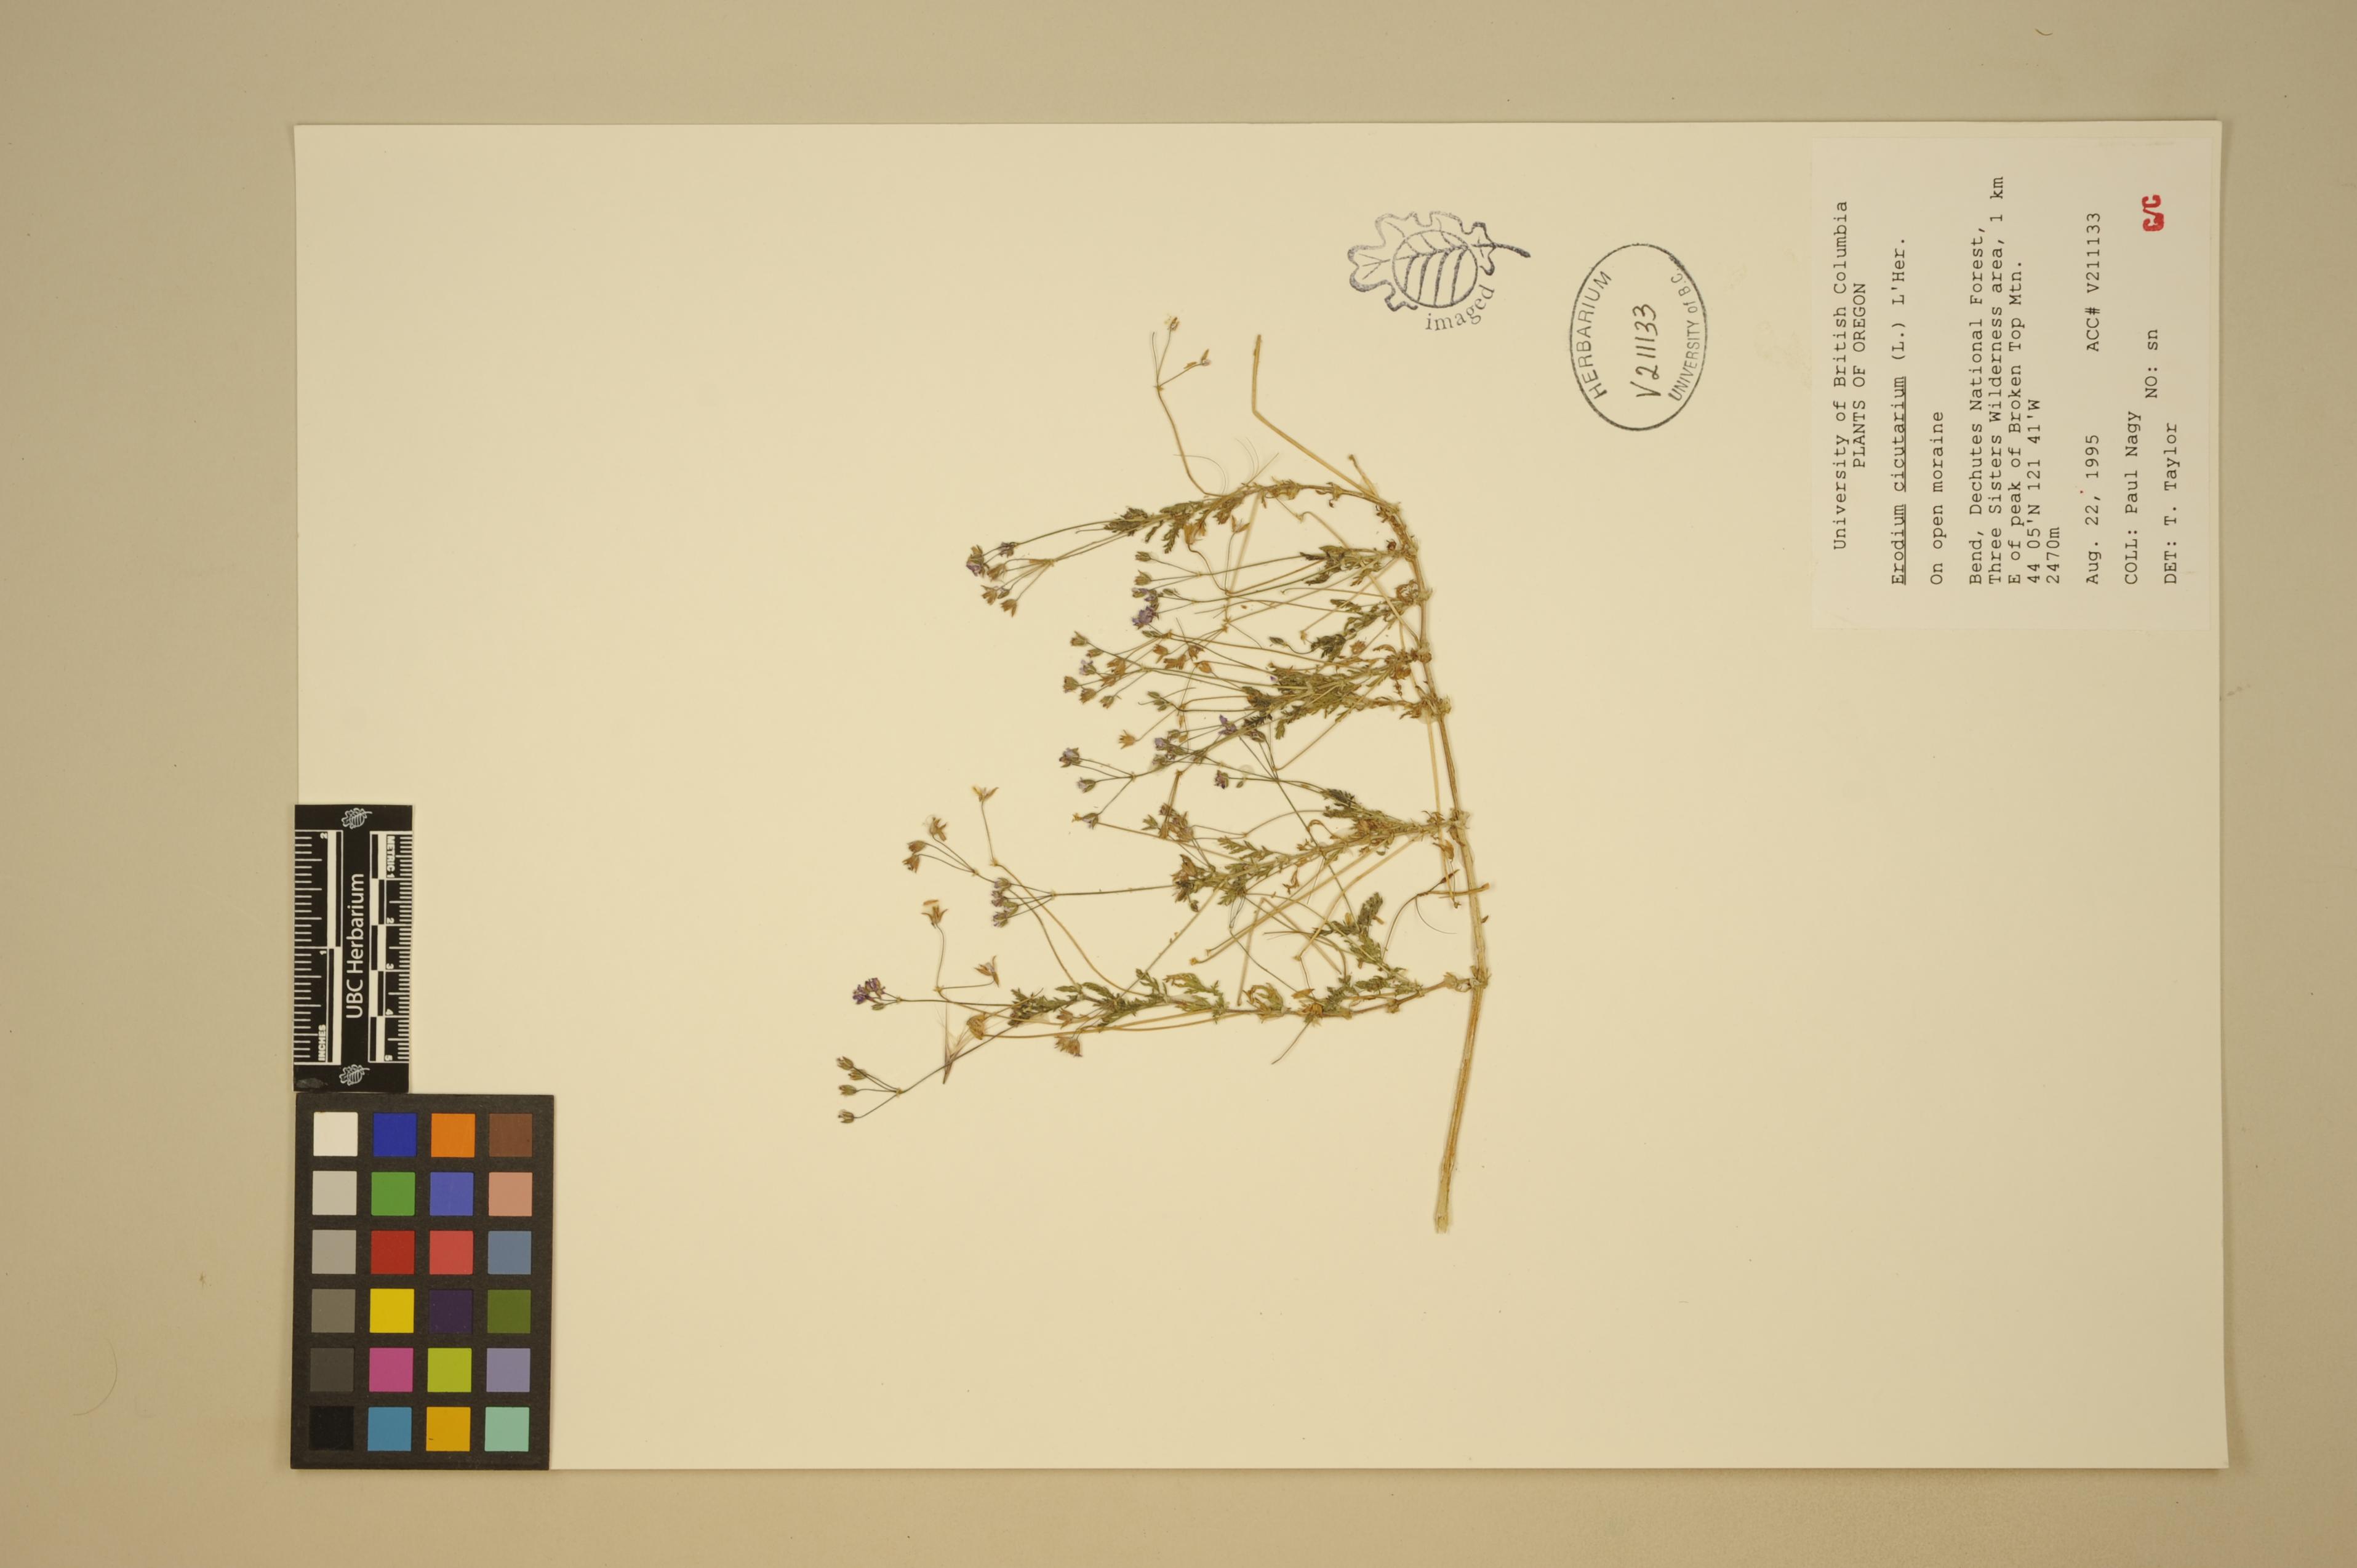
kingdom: Plantae
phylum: Tracheophyta
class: Magnoliopsida
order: Geraniales
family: Geraniaceae
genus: Erodium
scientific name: Erodium cicutarium
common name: Common stork's-bill
